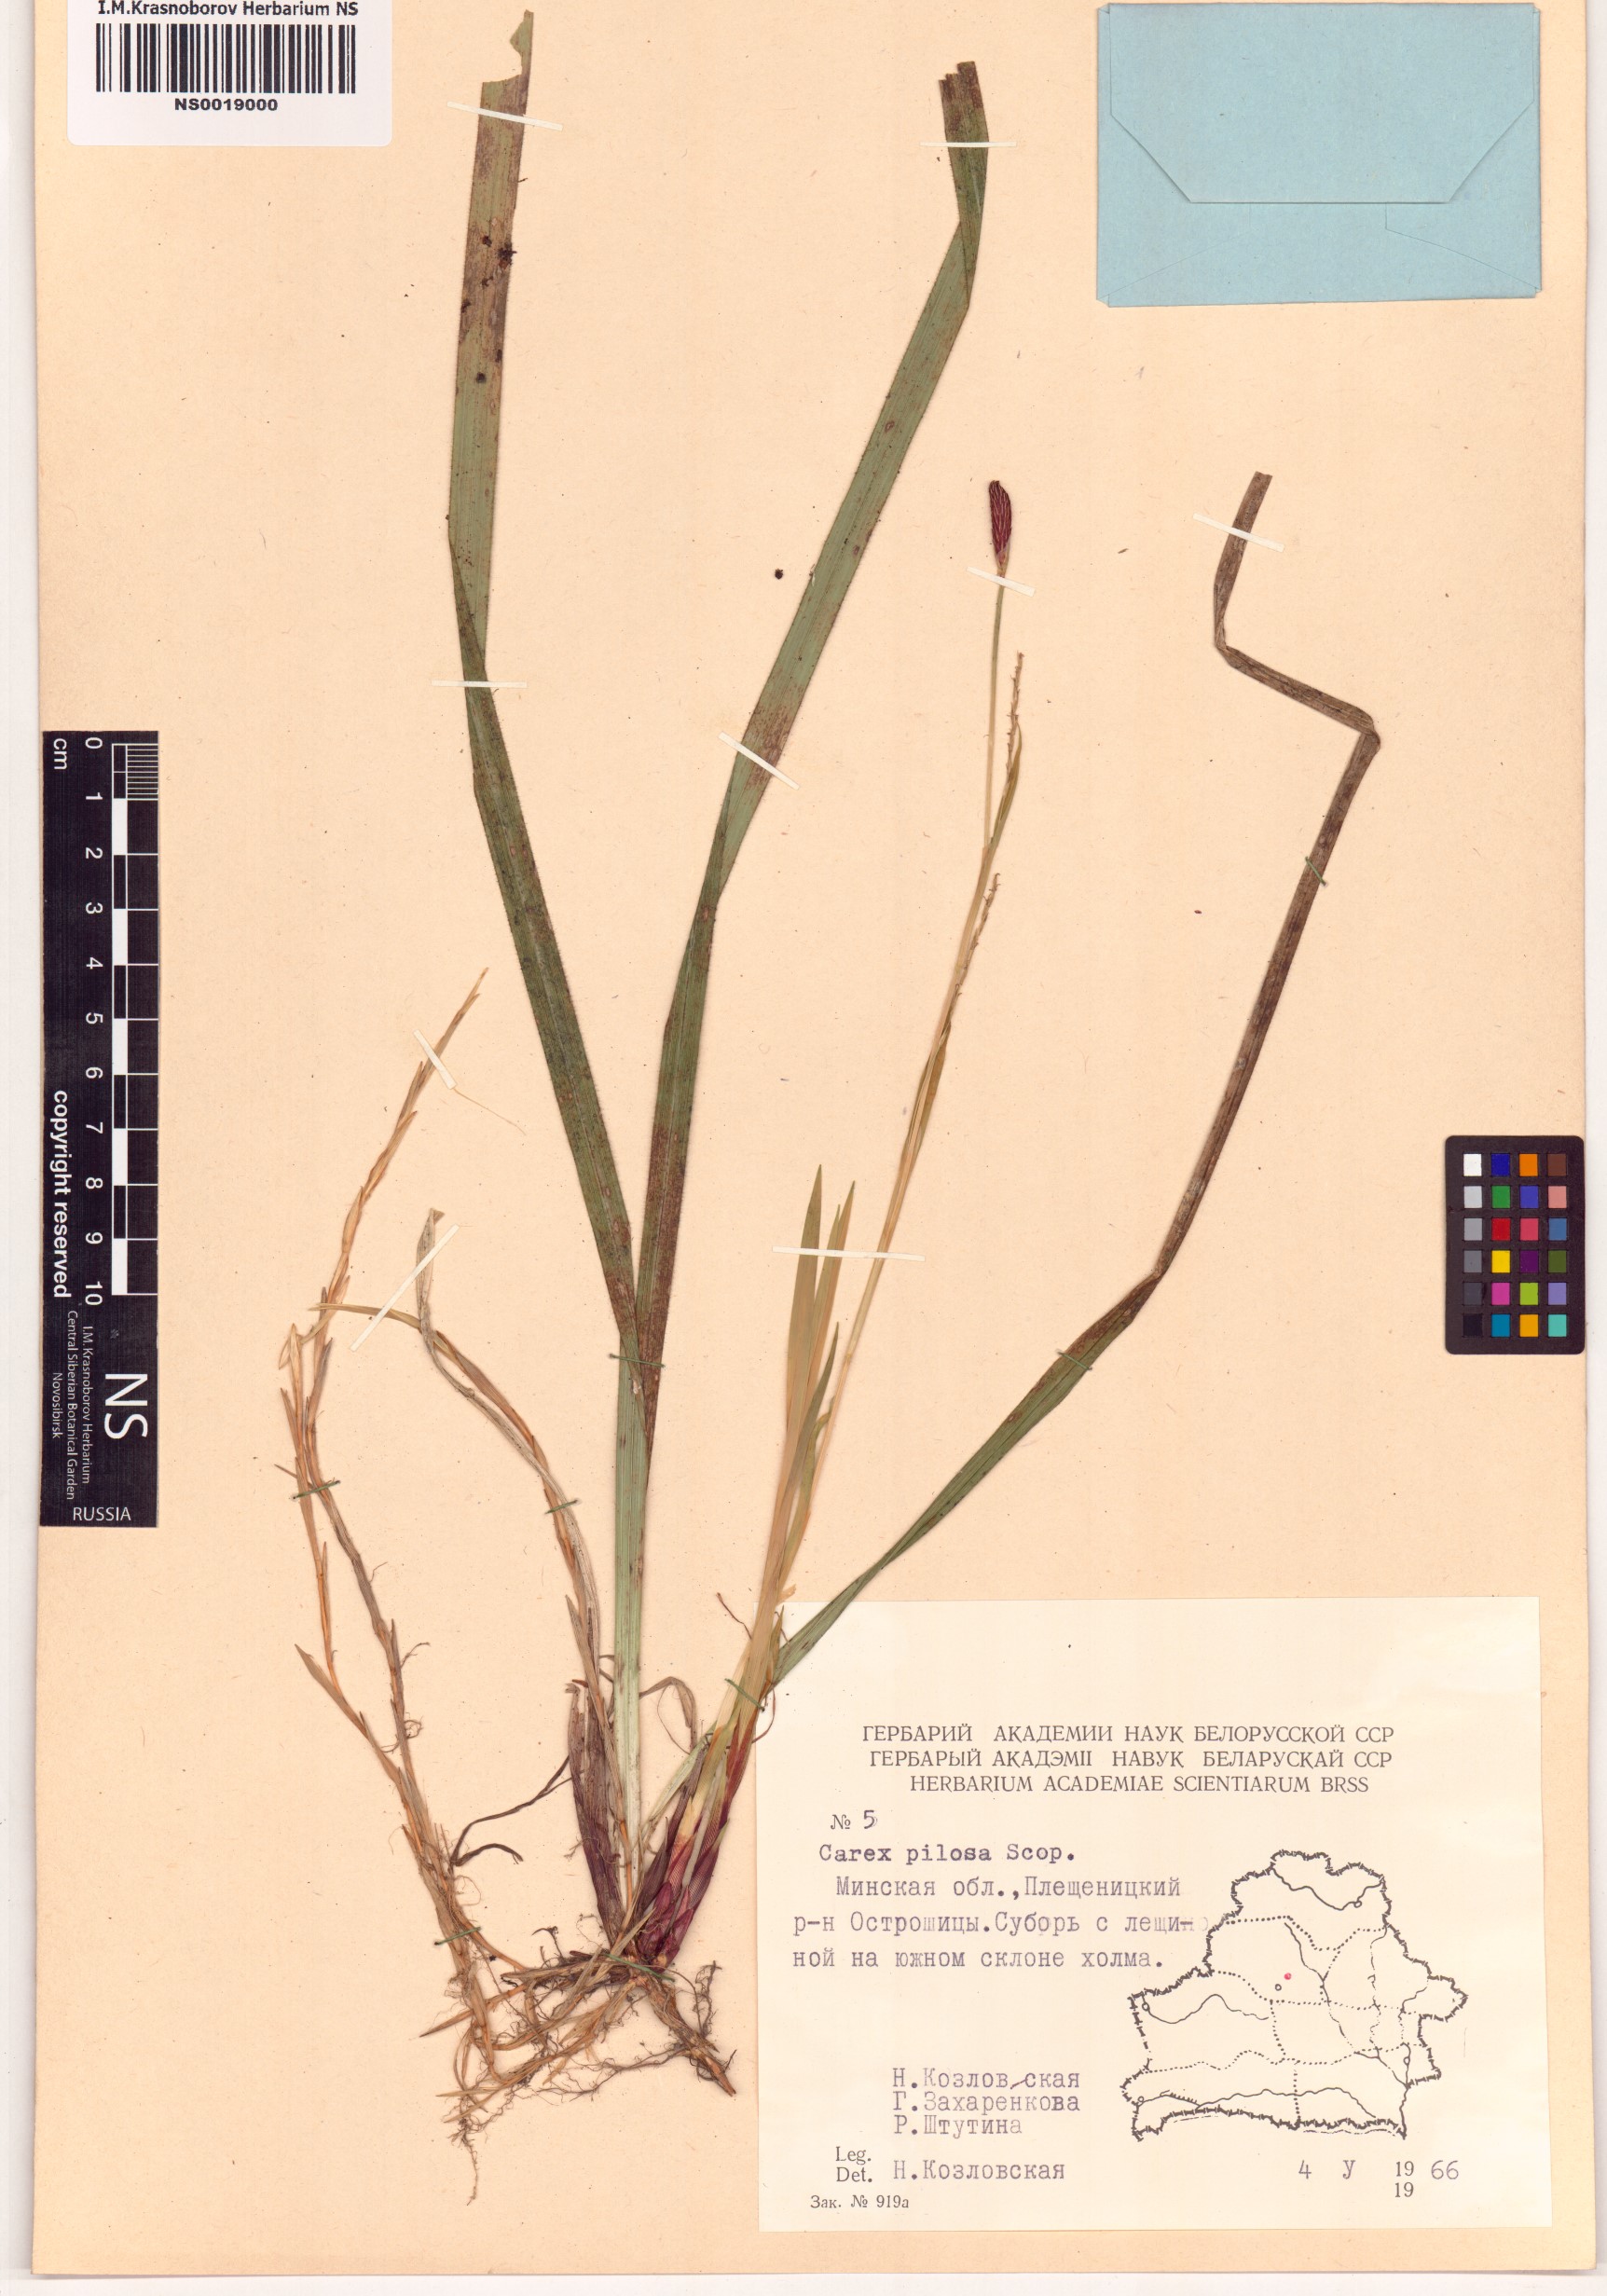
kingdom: Plantae
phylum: Tracheophyta
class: Liliopsida
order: Poales
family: Cyperaceae
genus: Carex
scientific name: Carex pilosa
